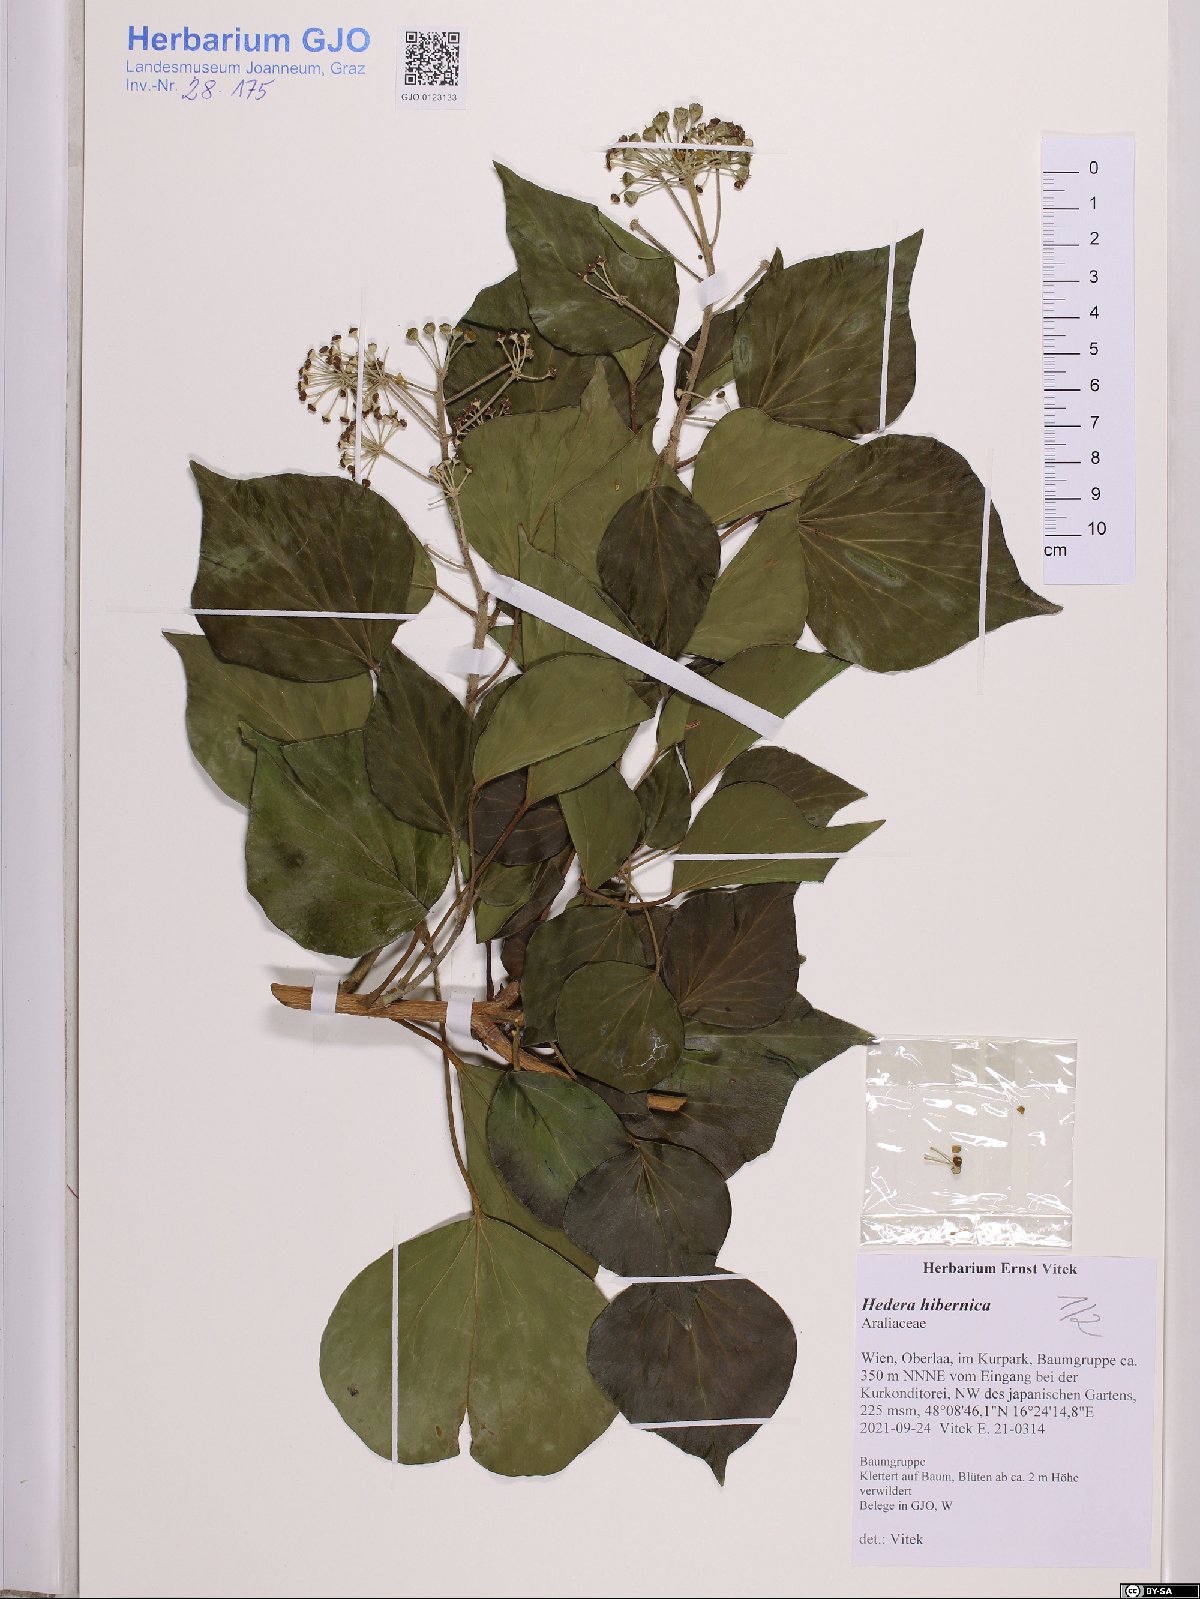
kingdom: Plantae
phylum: Tracheophyta
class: Magnoliopsida
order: Apiales
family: Araliaceae
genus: Hedera
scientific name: Hedera hibernica
